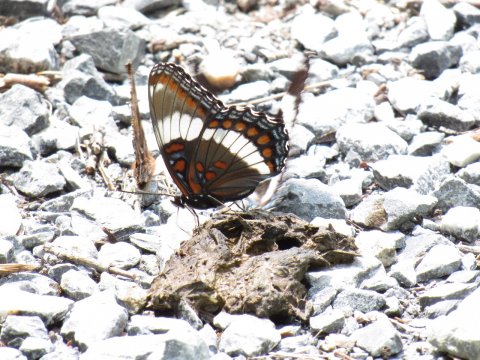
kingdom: Animalia
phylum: Arthropoda
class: Insecta
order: Lepidoptera
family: Nymphalidae
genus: Limenitis
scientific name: Limenitis arthemis
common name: Red-spotted Admiral
